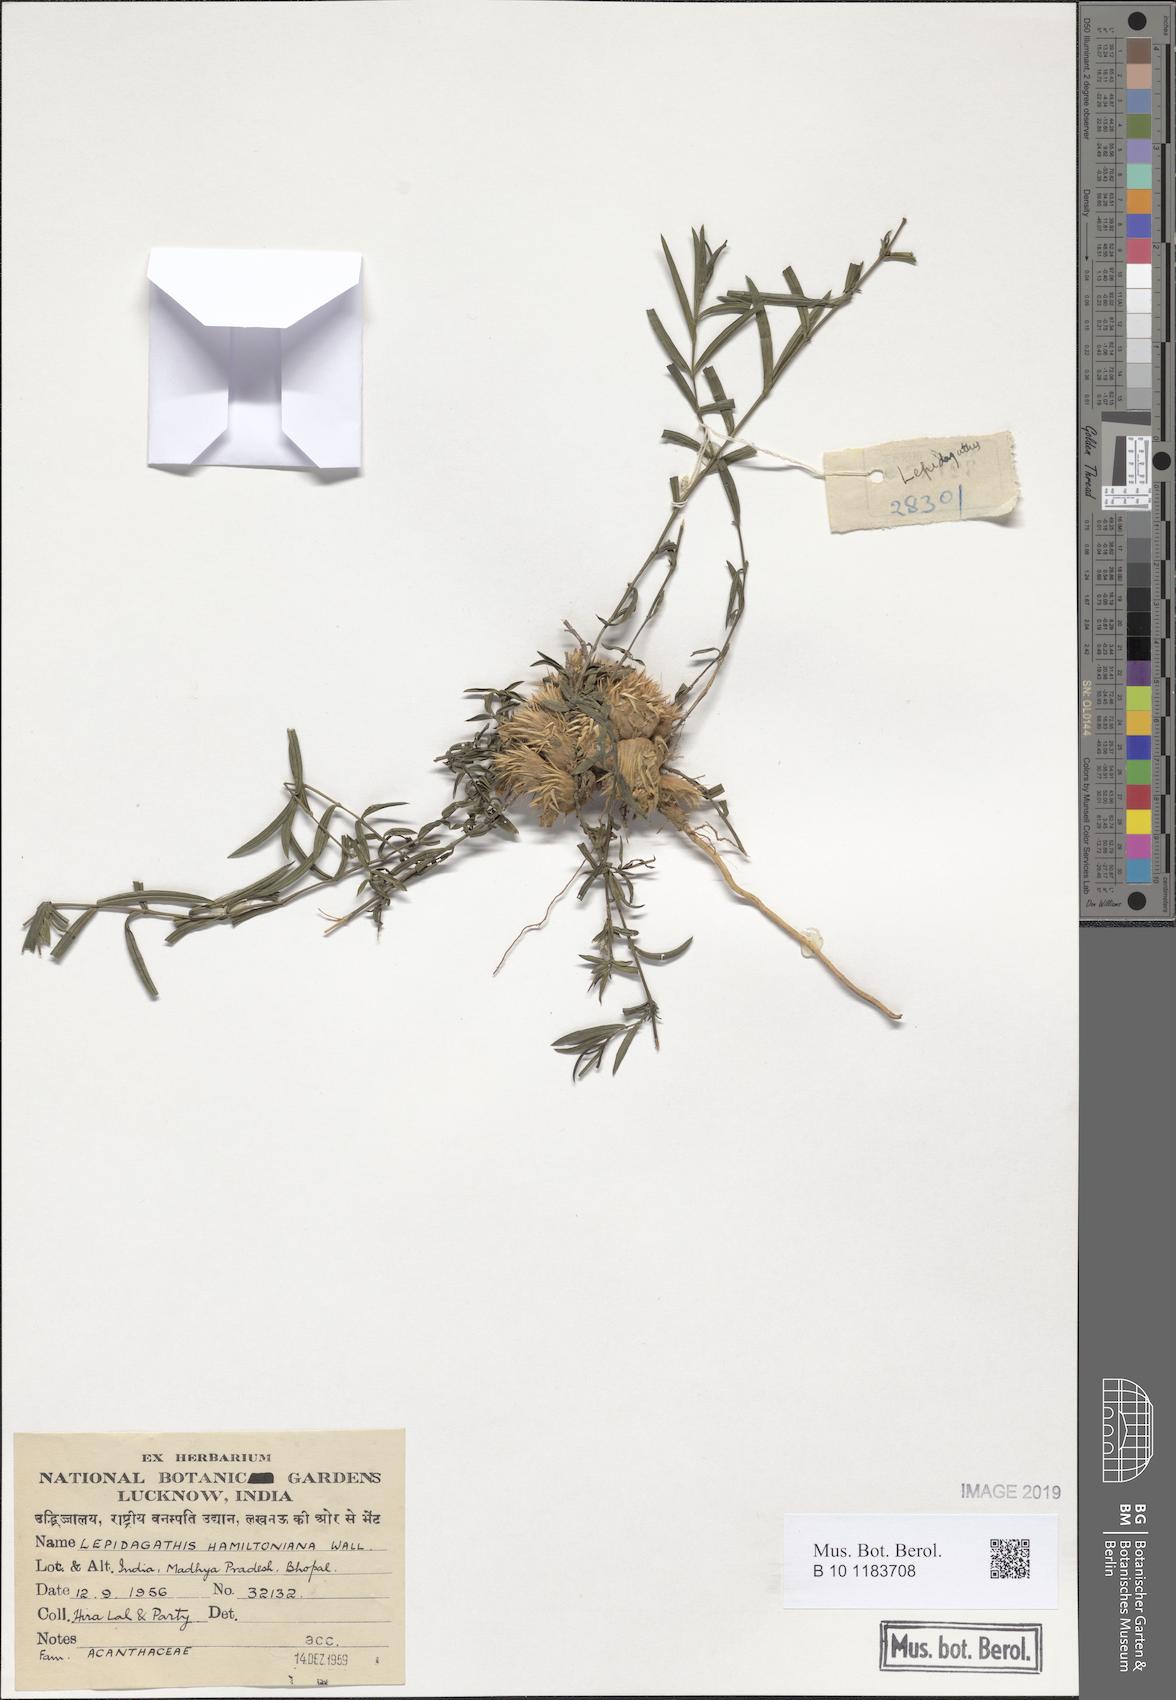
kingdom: Plantae
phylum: Tracheophyta
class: Magnoliopsida
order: Lamiales
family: Acanthaceae
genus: Lepidagathis
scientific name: Lepidagathis hamiltoniana
